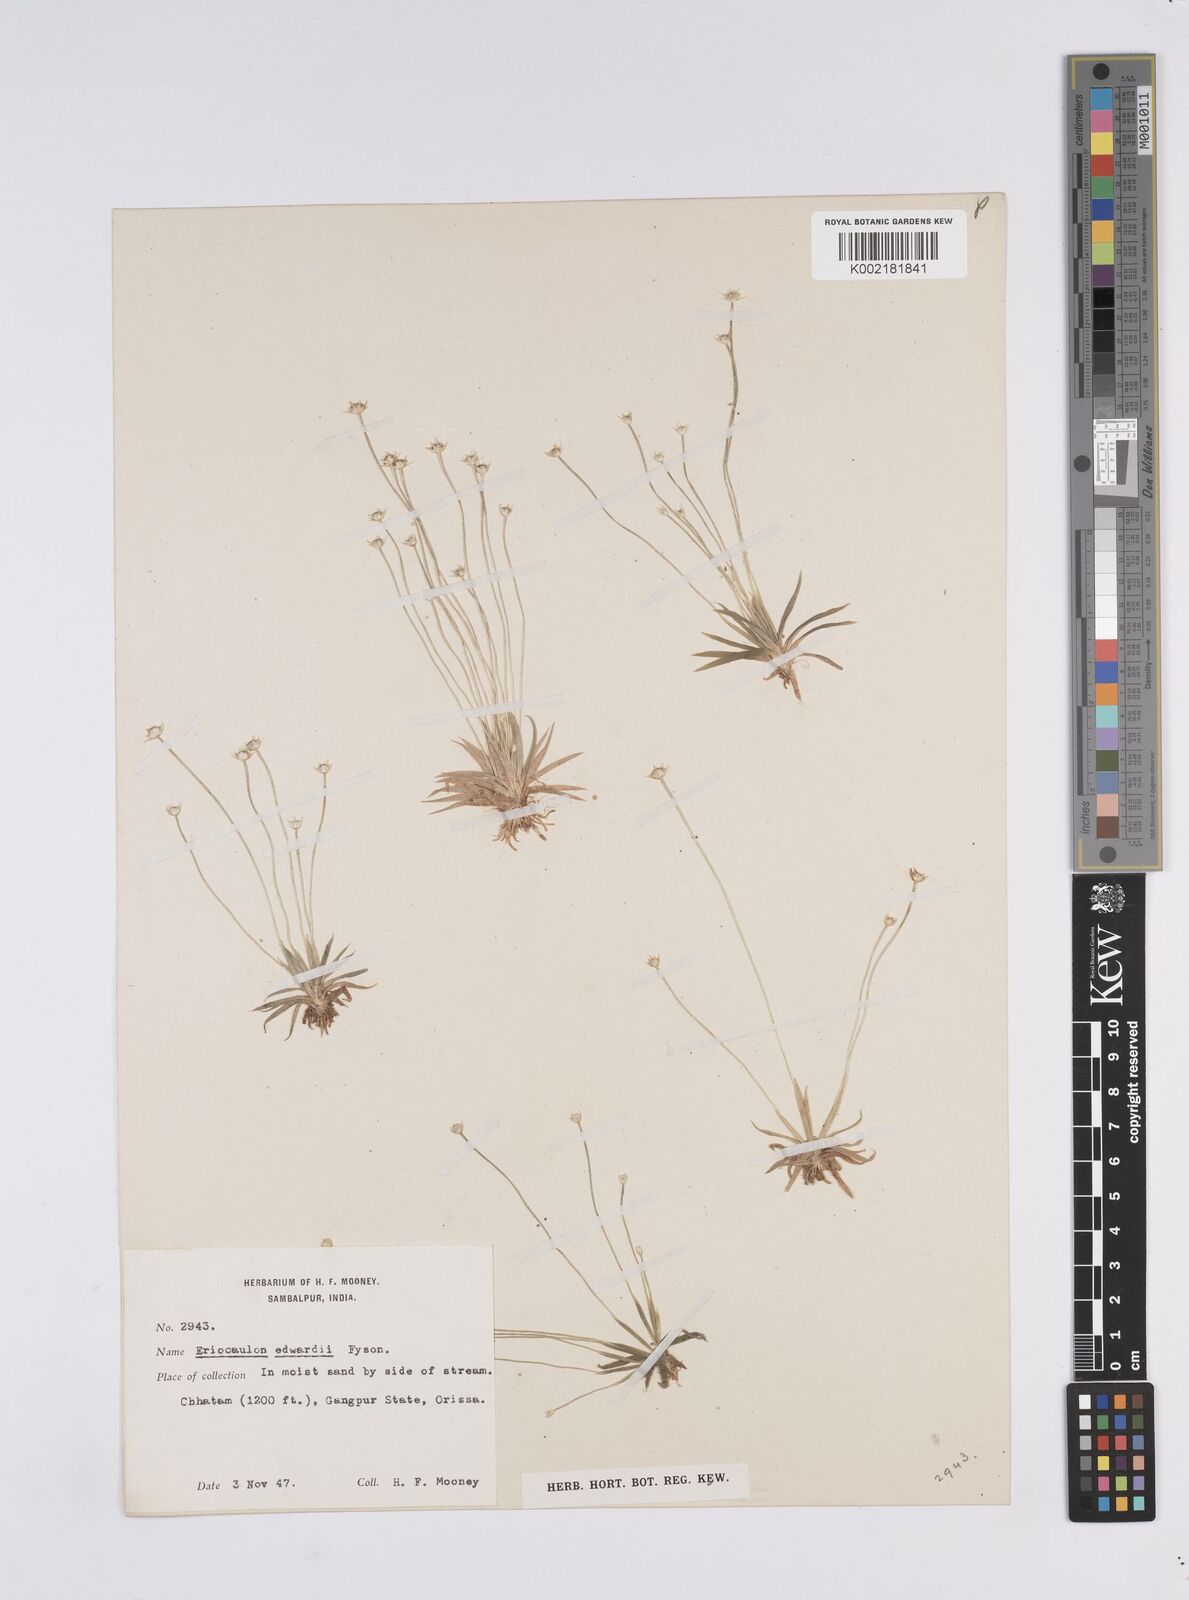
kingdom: Plantae
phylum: Tracheophyta
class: Liliopsida
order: Poales
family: Eriocaulaceae
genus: Eriocaulon
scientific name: Eriocaulon edwardii
